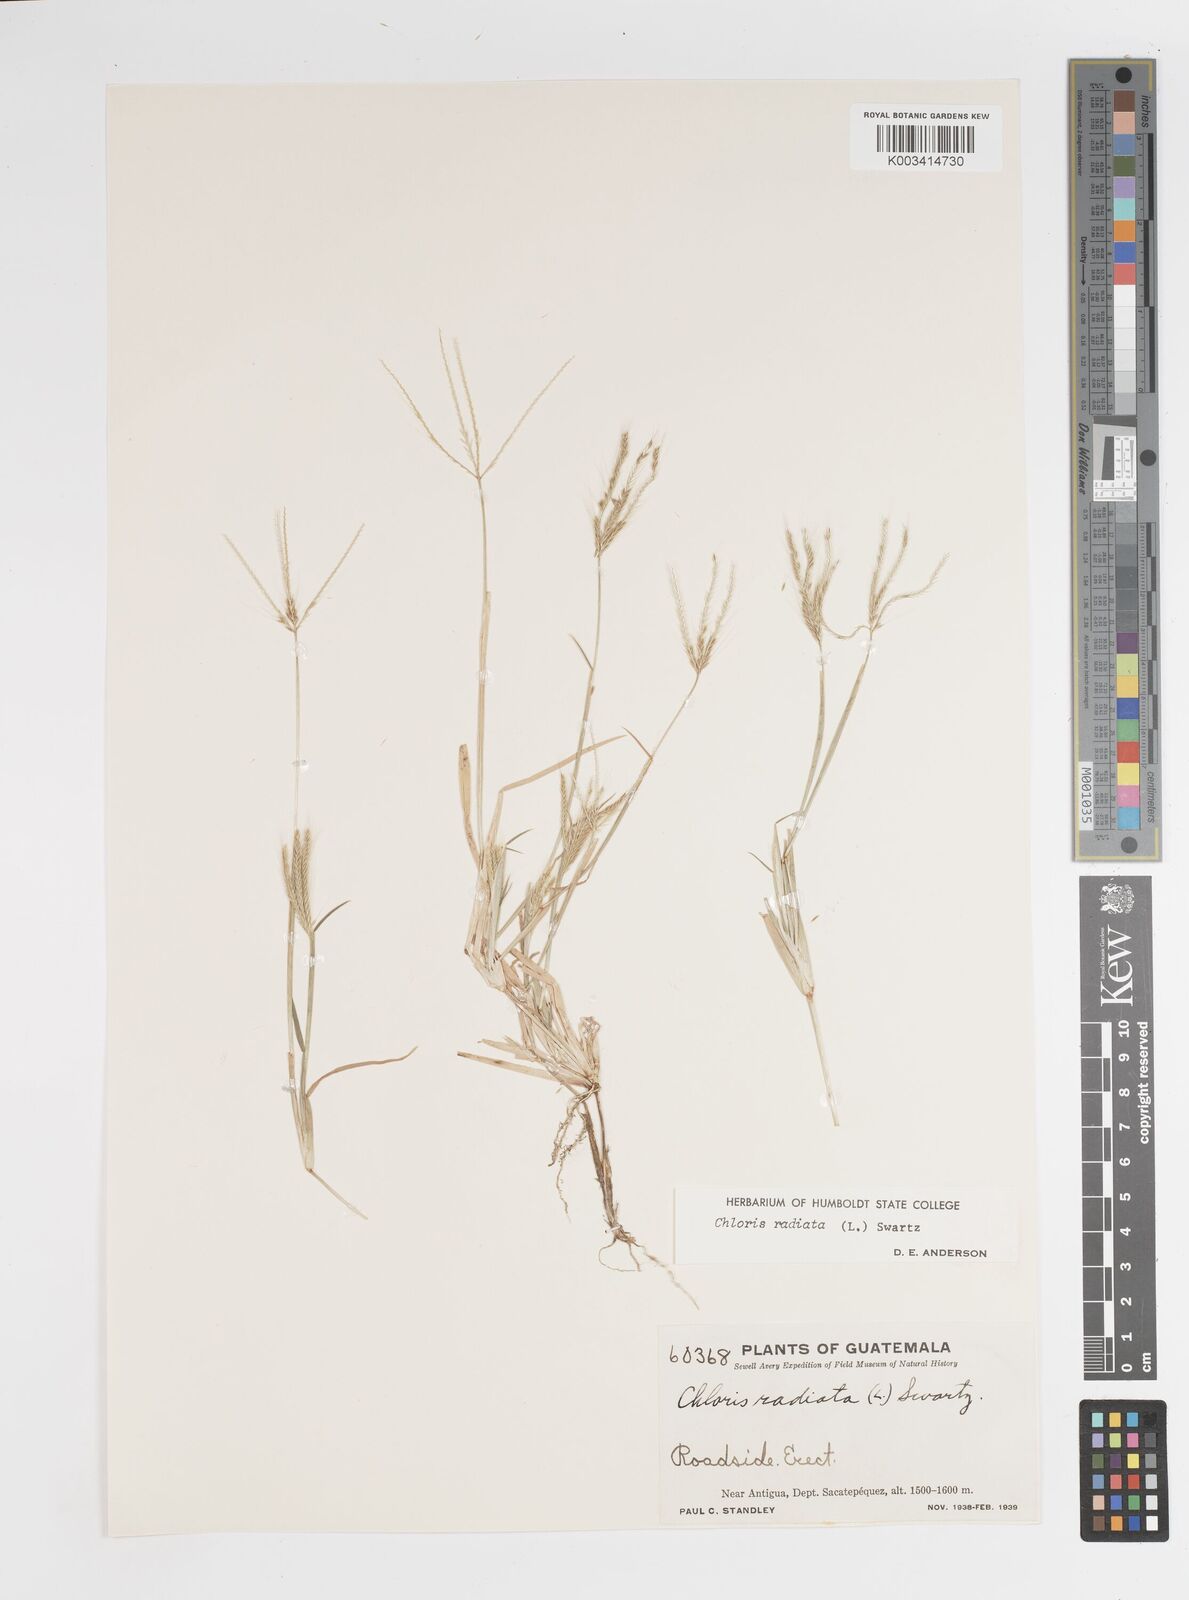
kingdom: Plantae
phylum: Tracheophyta
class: Liliopsida
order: Poales
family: Poaceae
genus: Chloris
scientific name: Chloris radiata
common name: Radiate fingergrass
